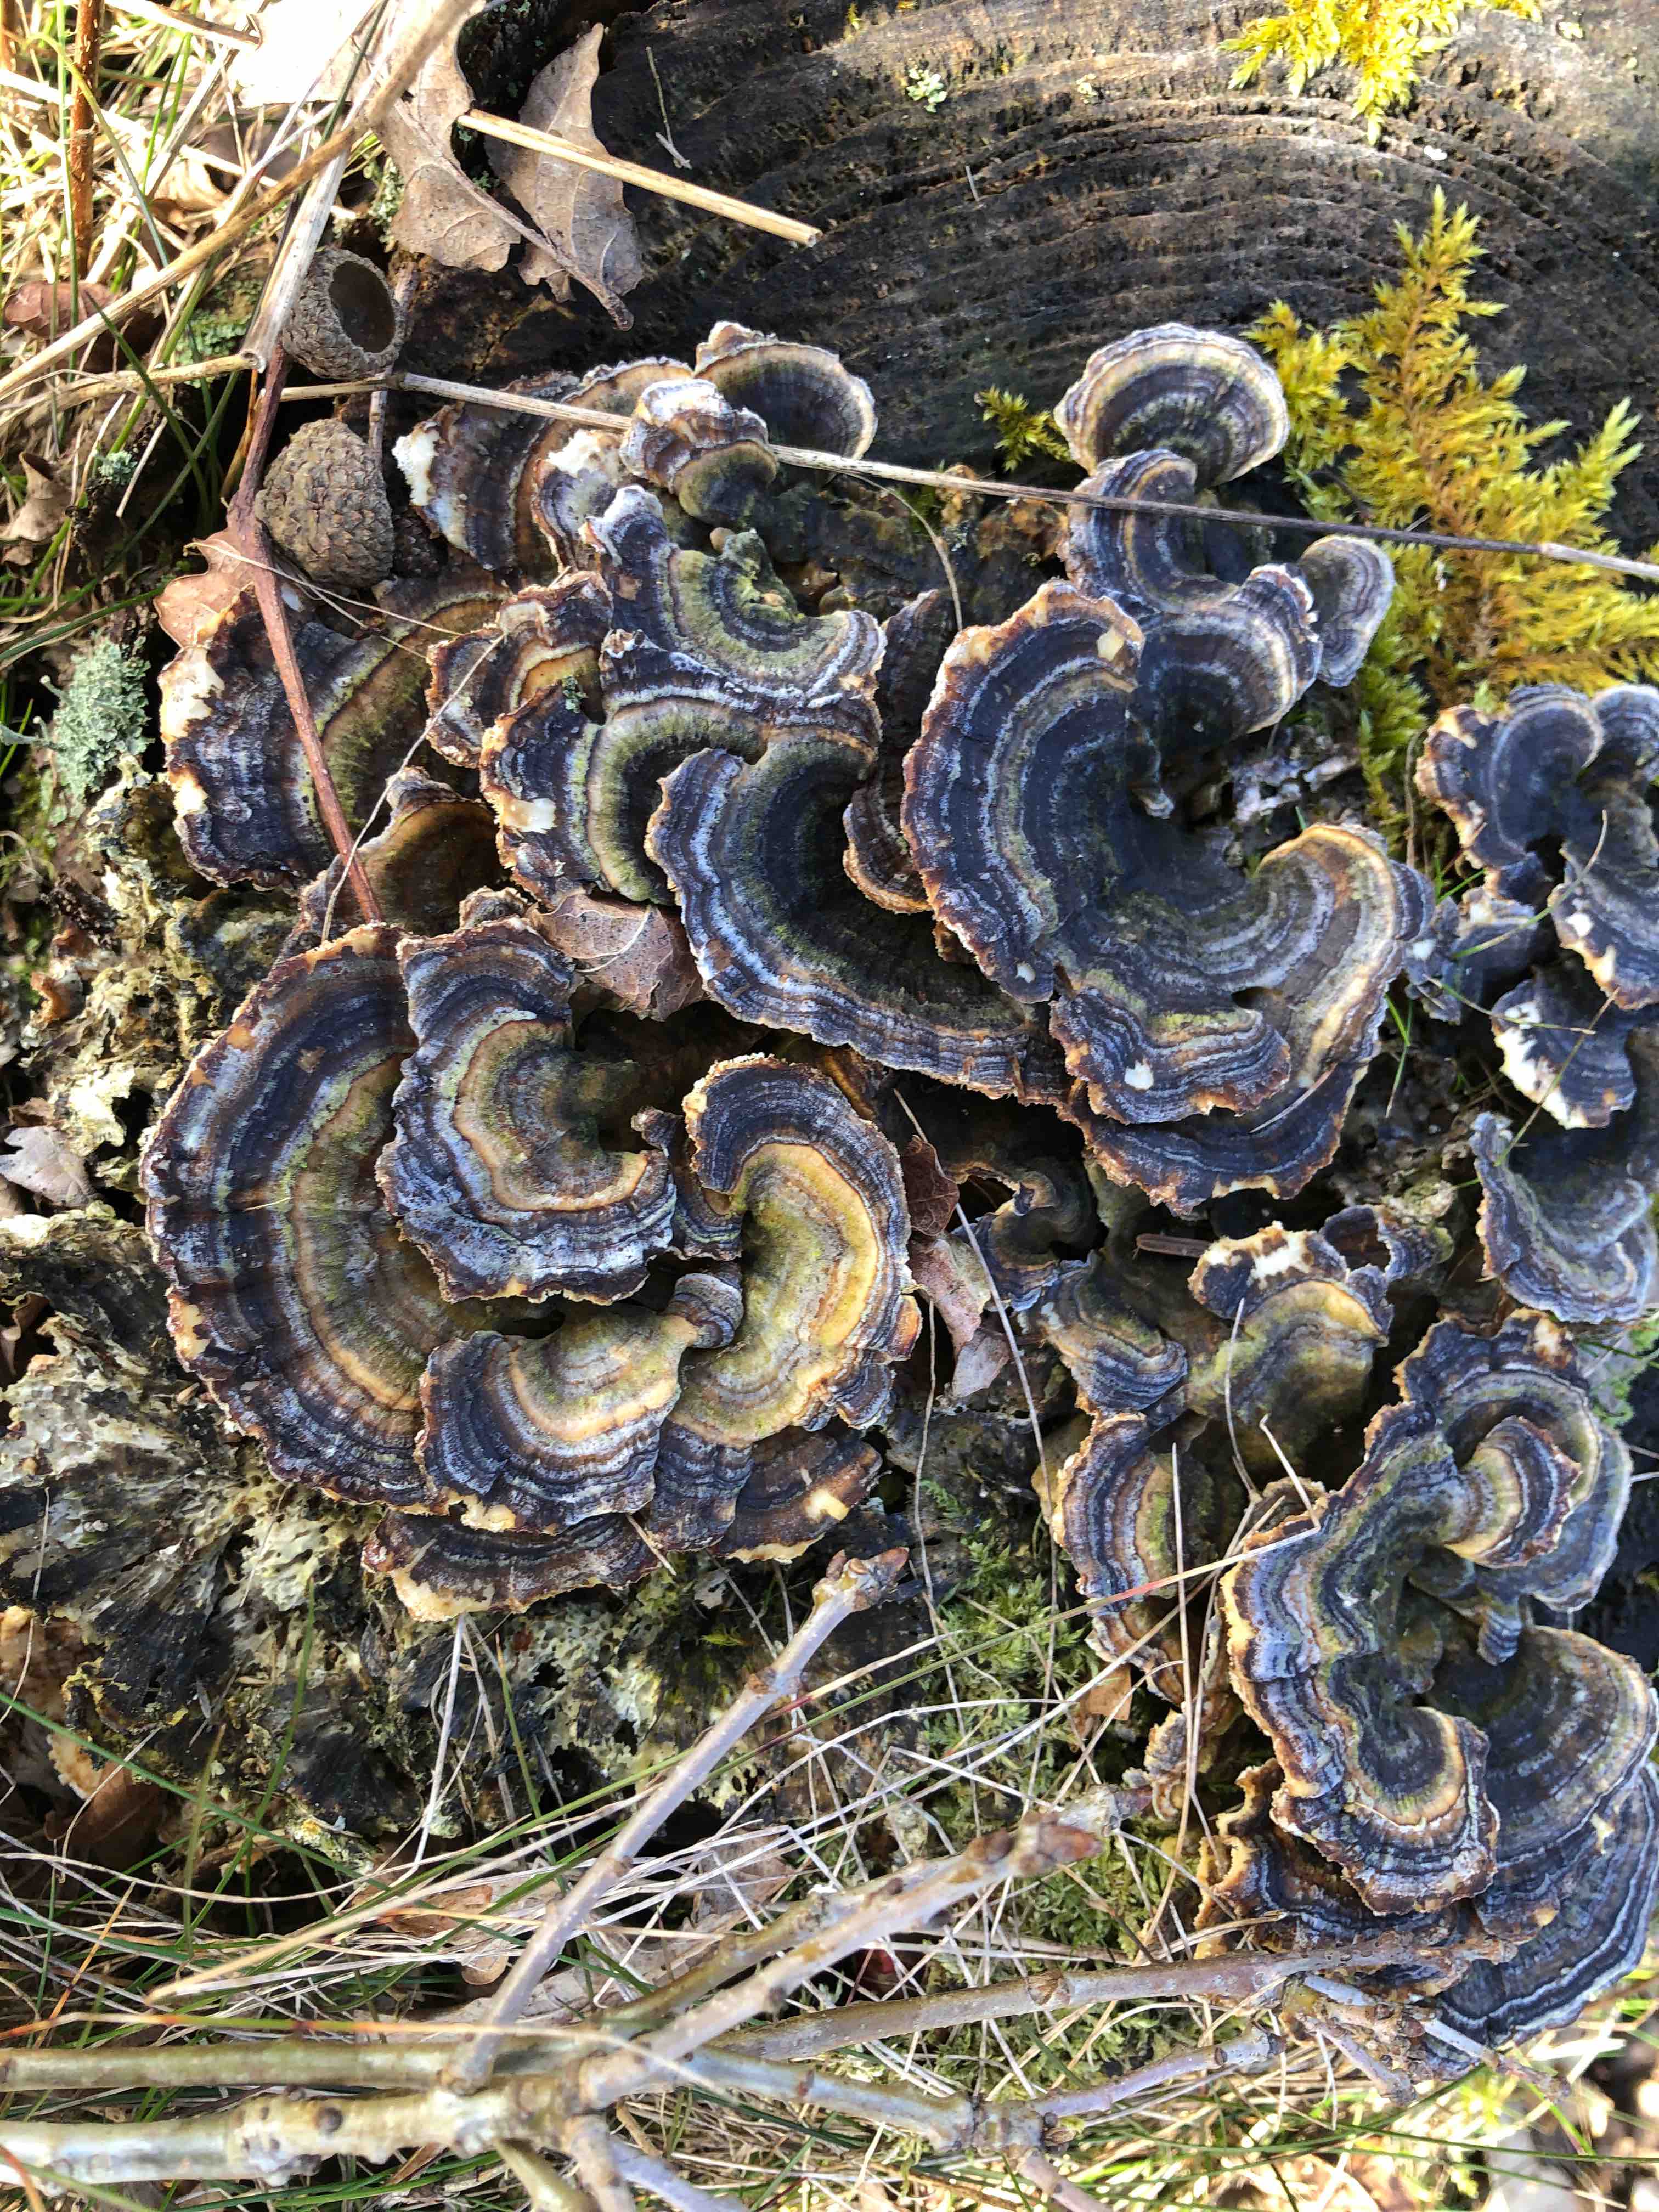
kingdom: Fungi
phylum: Basidiomycota
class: Agaricomycetes
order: Polyporales
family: Polyporaceae
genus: Trametes
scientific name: Trametes versicolor
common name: broget læderporesvamp
